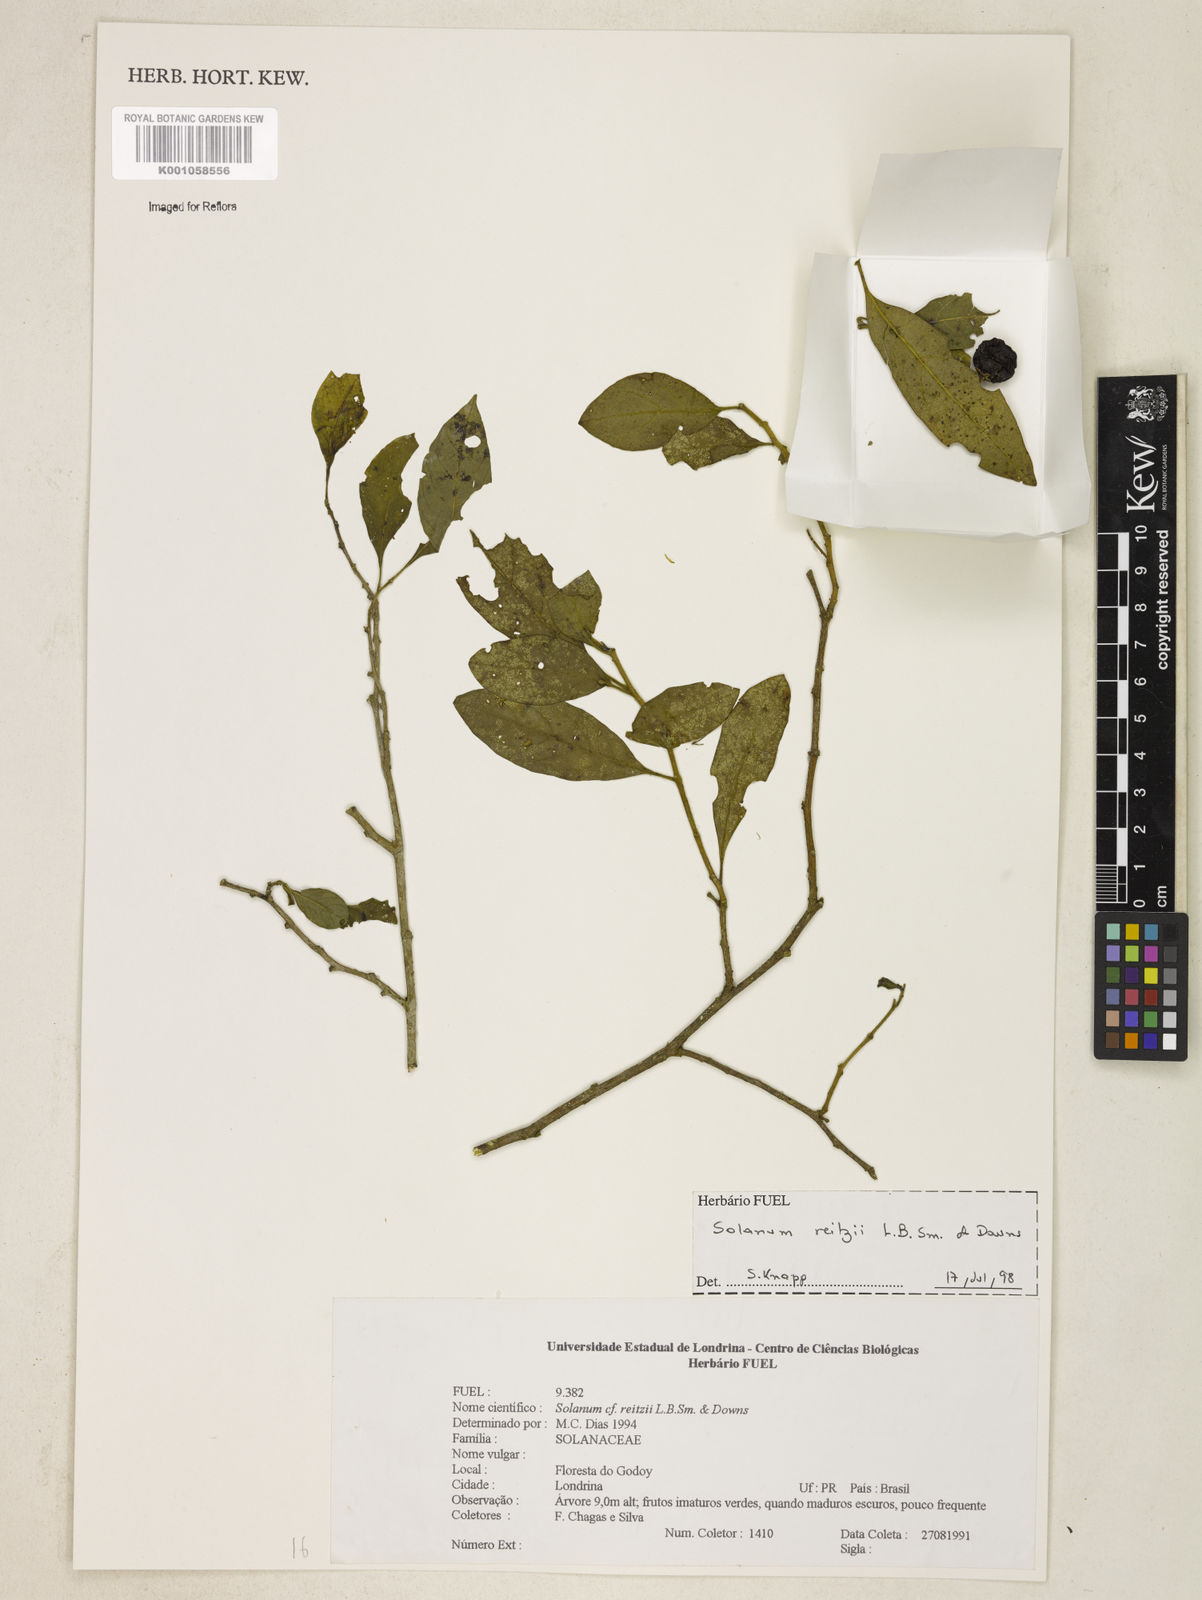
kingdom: Plantae
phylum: Tracheophyta
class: Magnoliopsida
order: Solanales
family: Solanaceae
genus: Solanum
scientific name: Solanum reitzii
